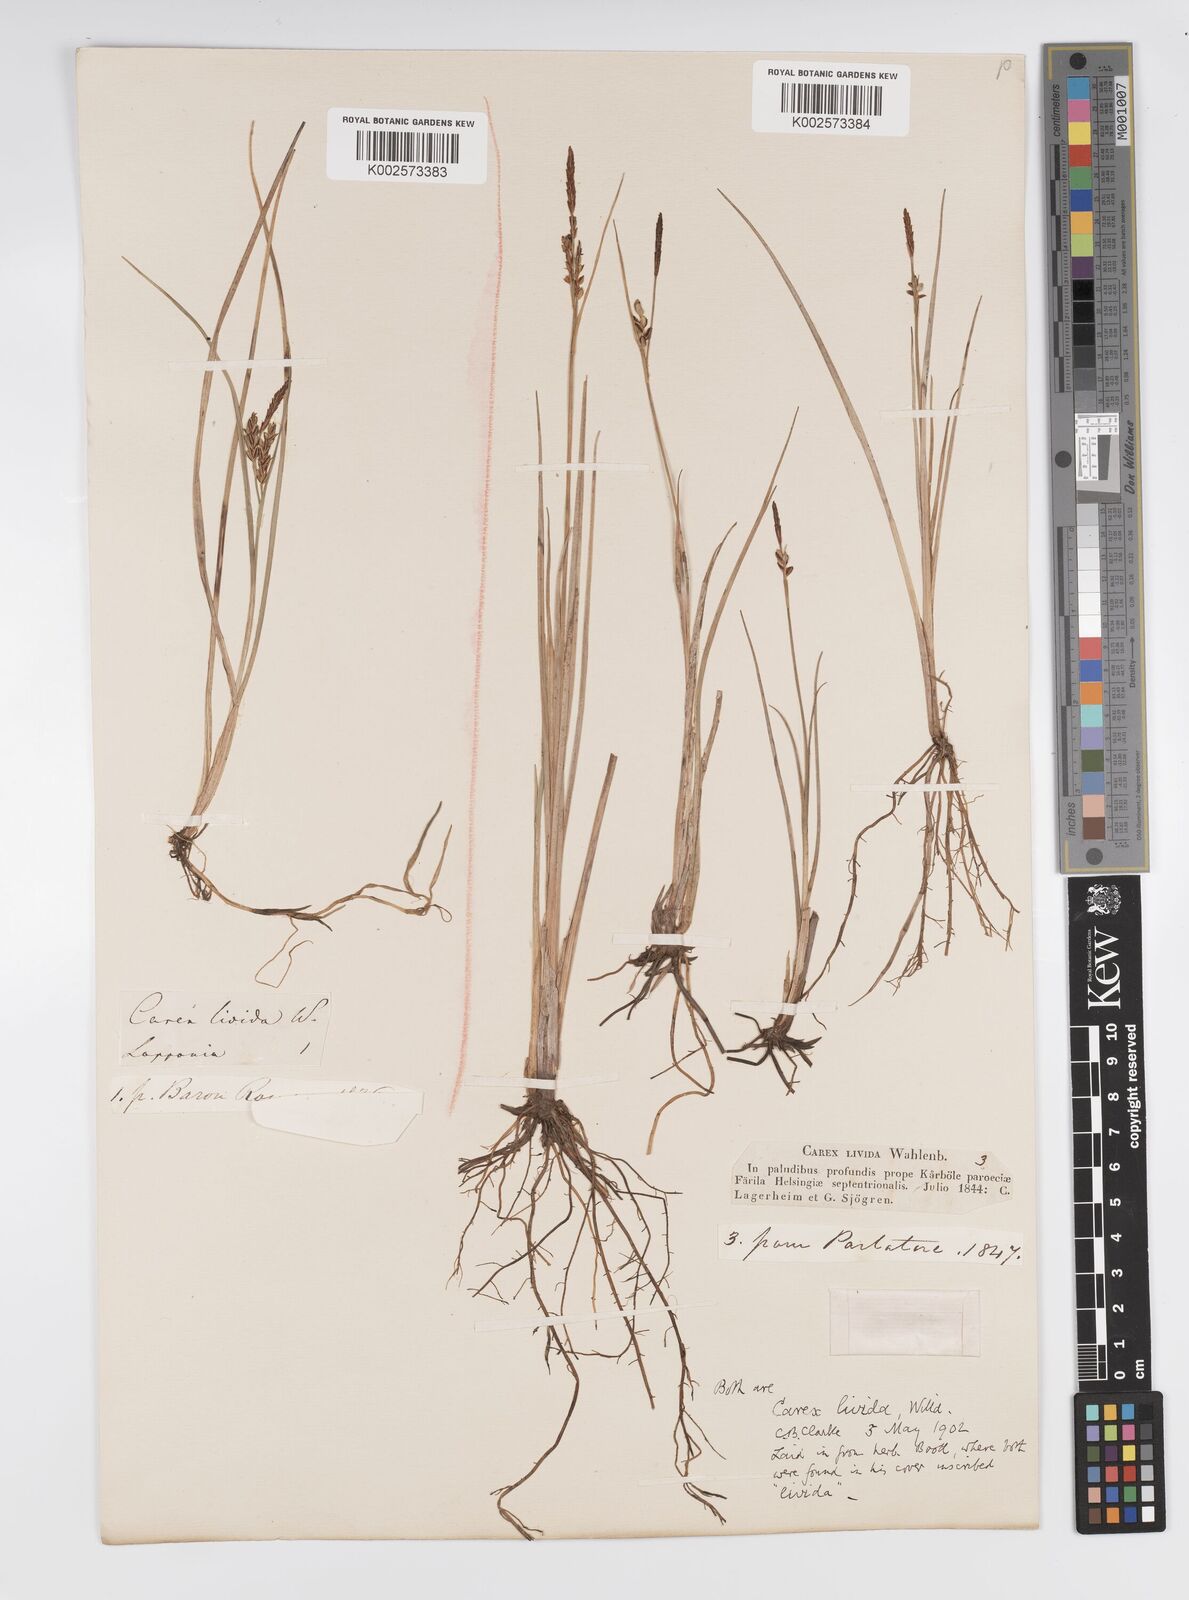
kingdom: Plantae
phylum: Tracheophyta
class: Liliopsida
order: Poales
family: Cyperaceae
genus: Carex
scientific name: Carex livida
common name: Livid sedge
